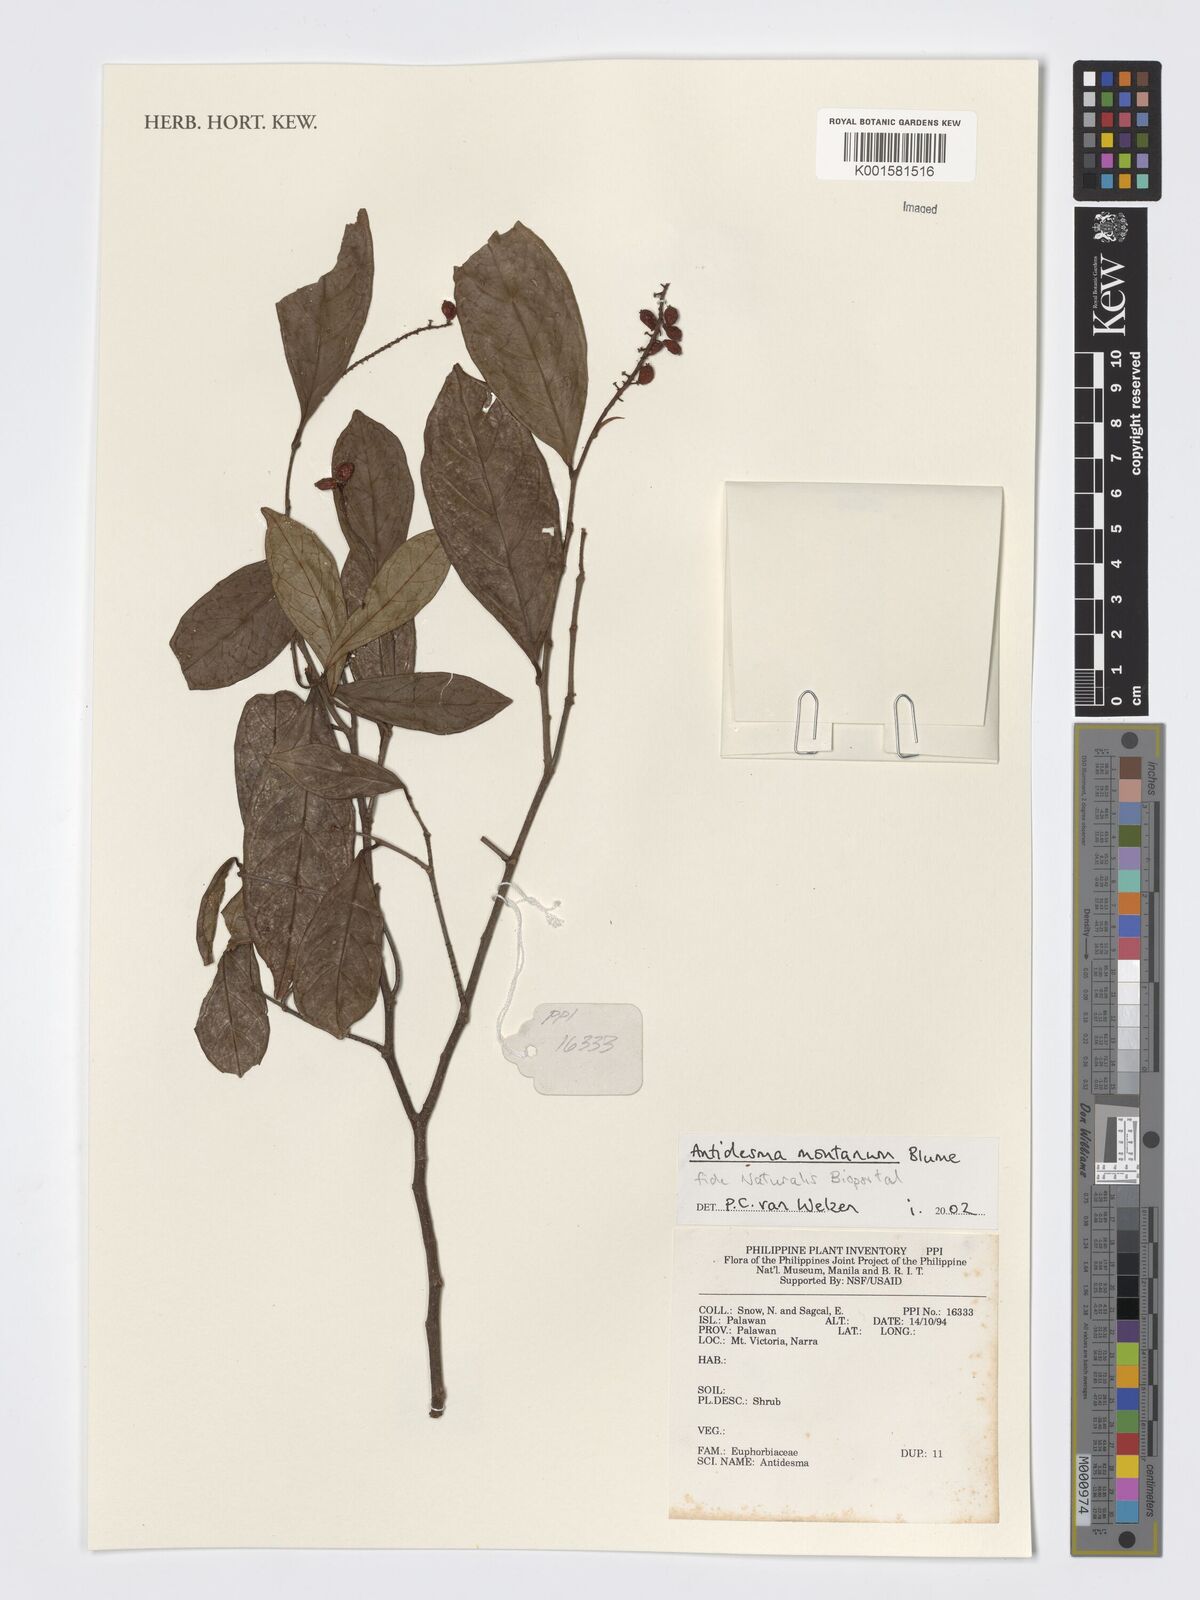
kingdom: Plantae
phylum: Tracheophyta
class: Magnoliopsida
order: Malpighiales
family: Phyllanthaceae
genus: Antidesma
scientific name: Antidesma montanum
